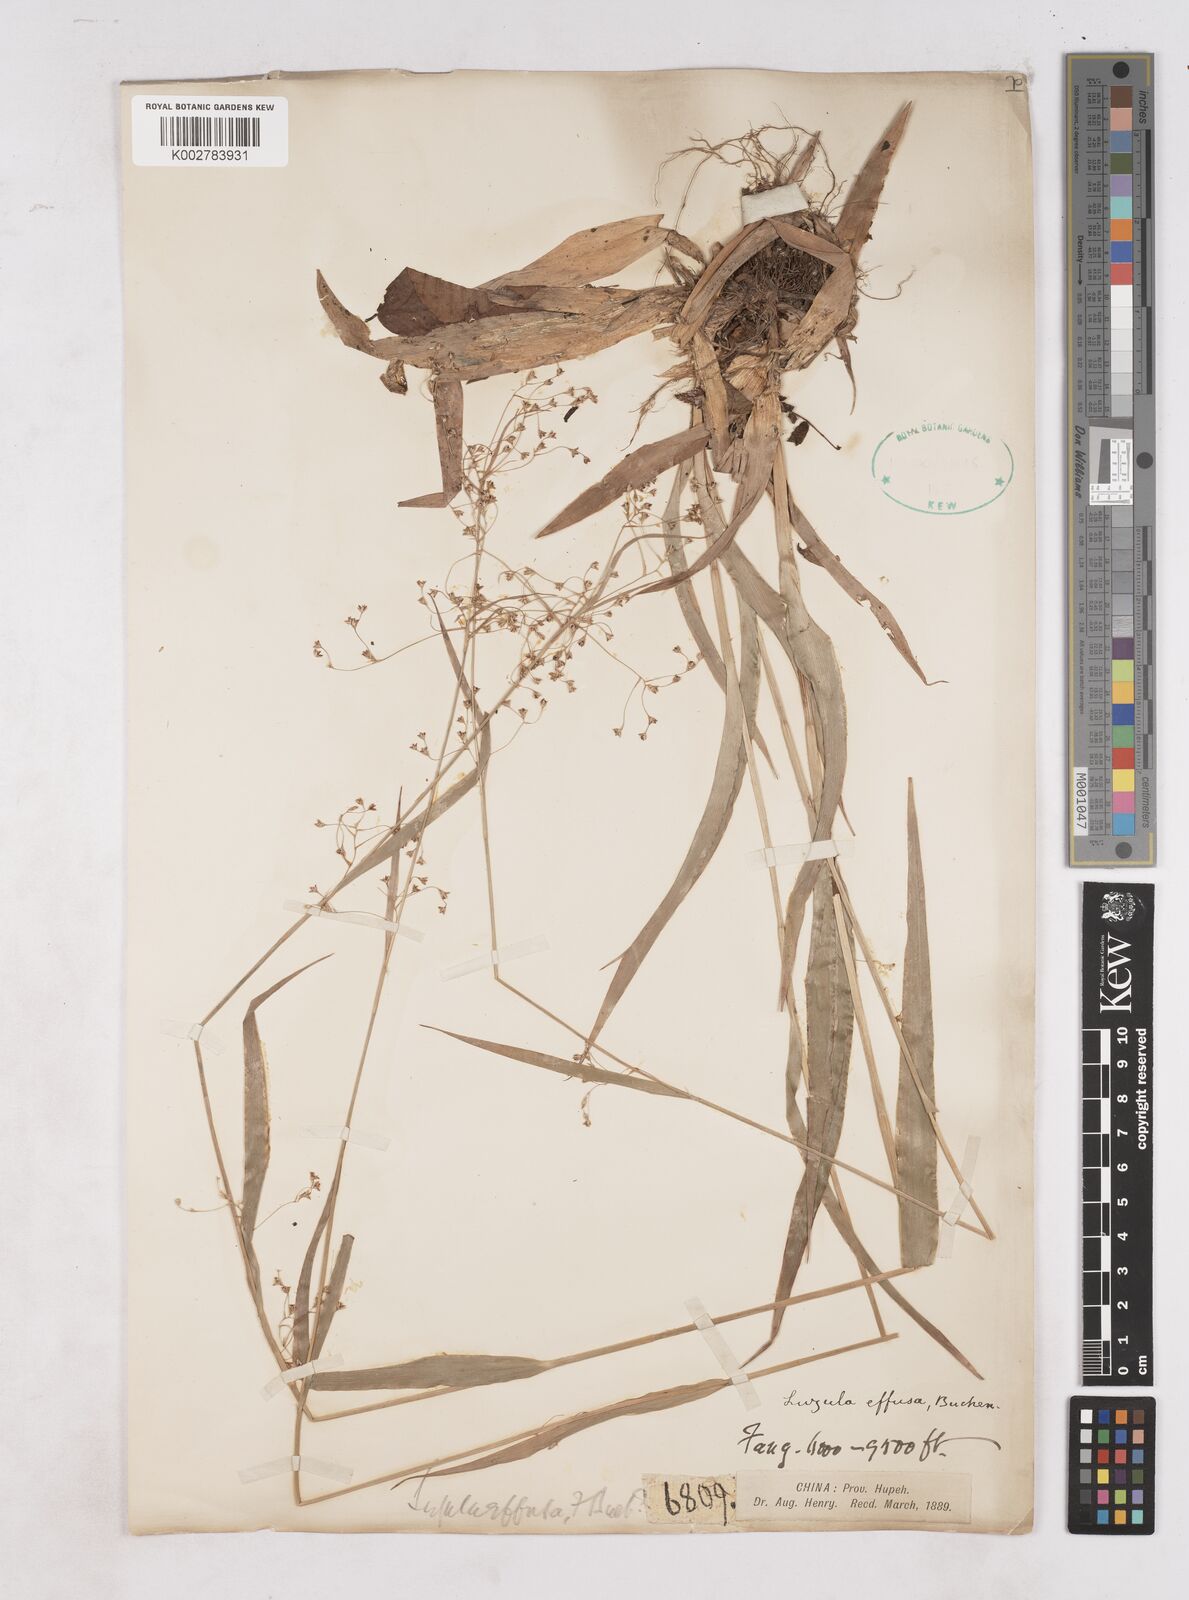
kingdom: Plantae
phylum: Tracheophyta
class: Liliopsida
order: Poales
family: Juncaceae
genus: Luzula
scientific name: Luzula effusa
